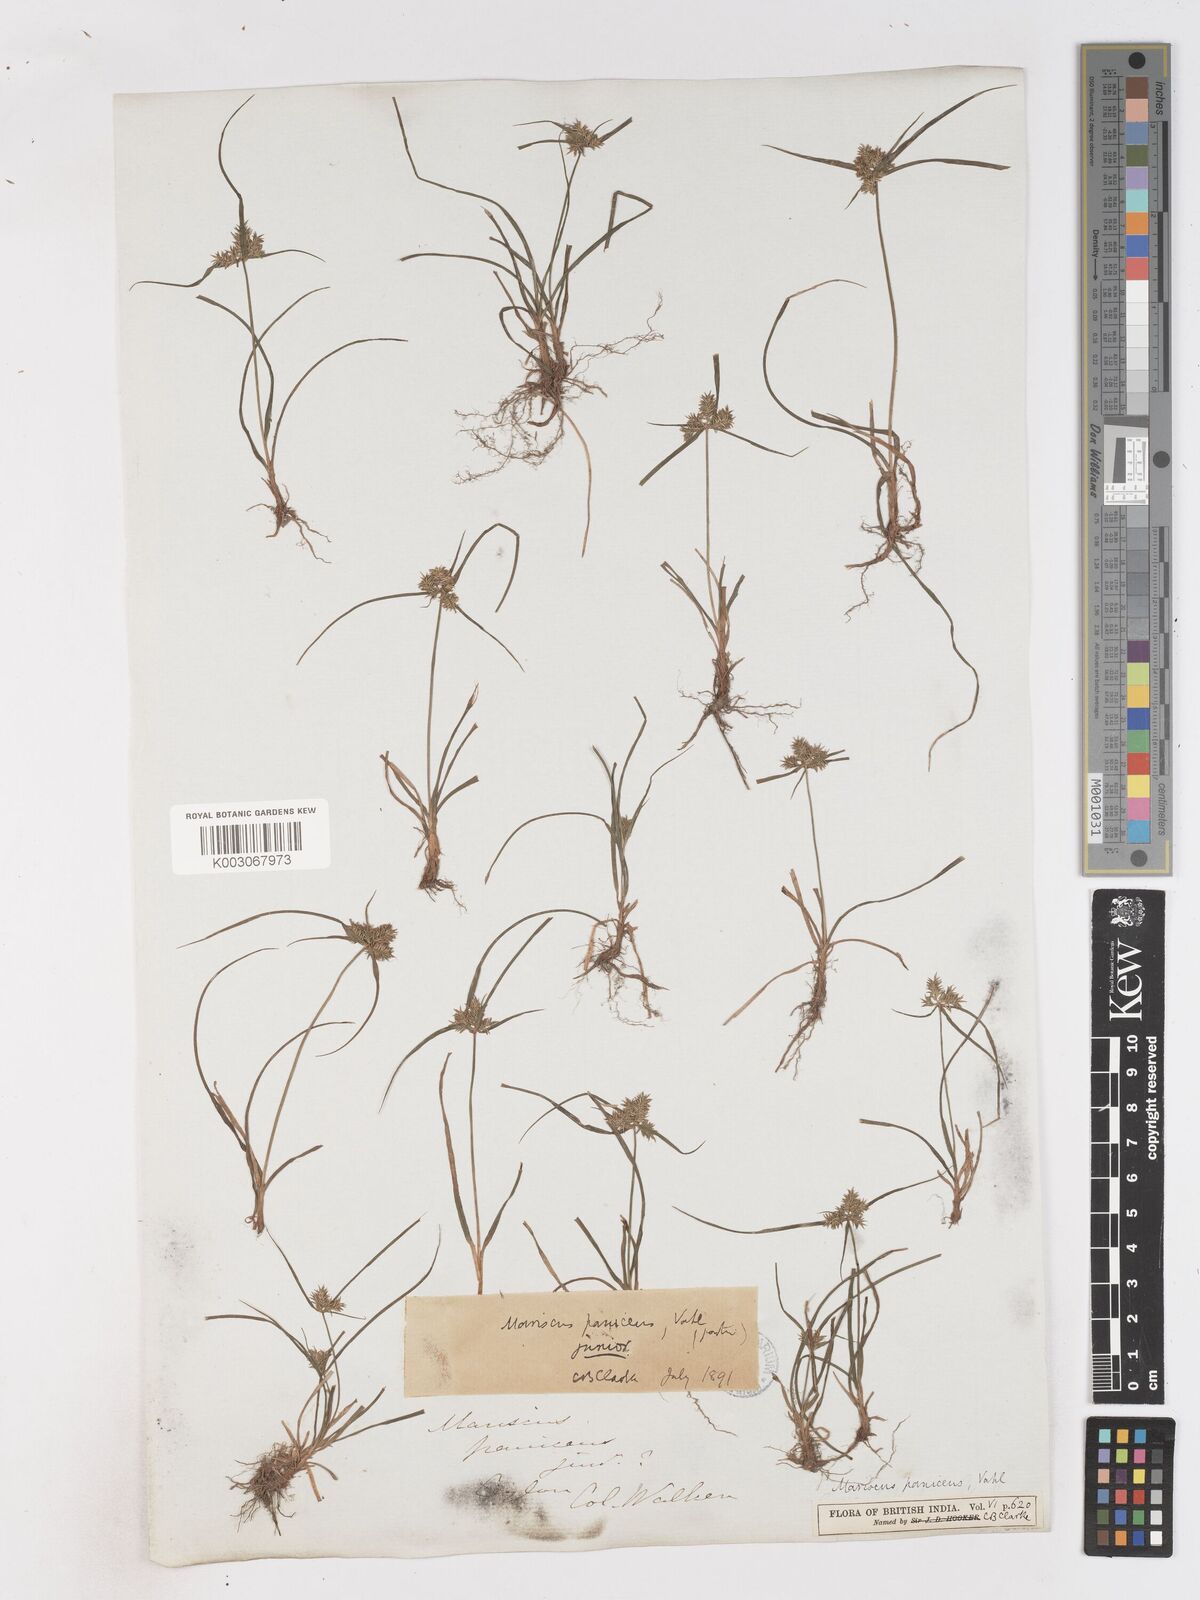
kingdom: Plantae
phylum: Tracheophyta
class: Liliopsida
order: Poales
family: Cyperaceae
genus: Cyperus
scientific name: Cyperus paniceus
